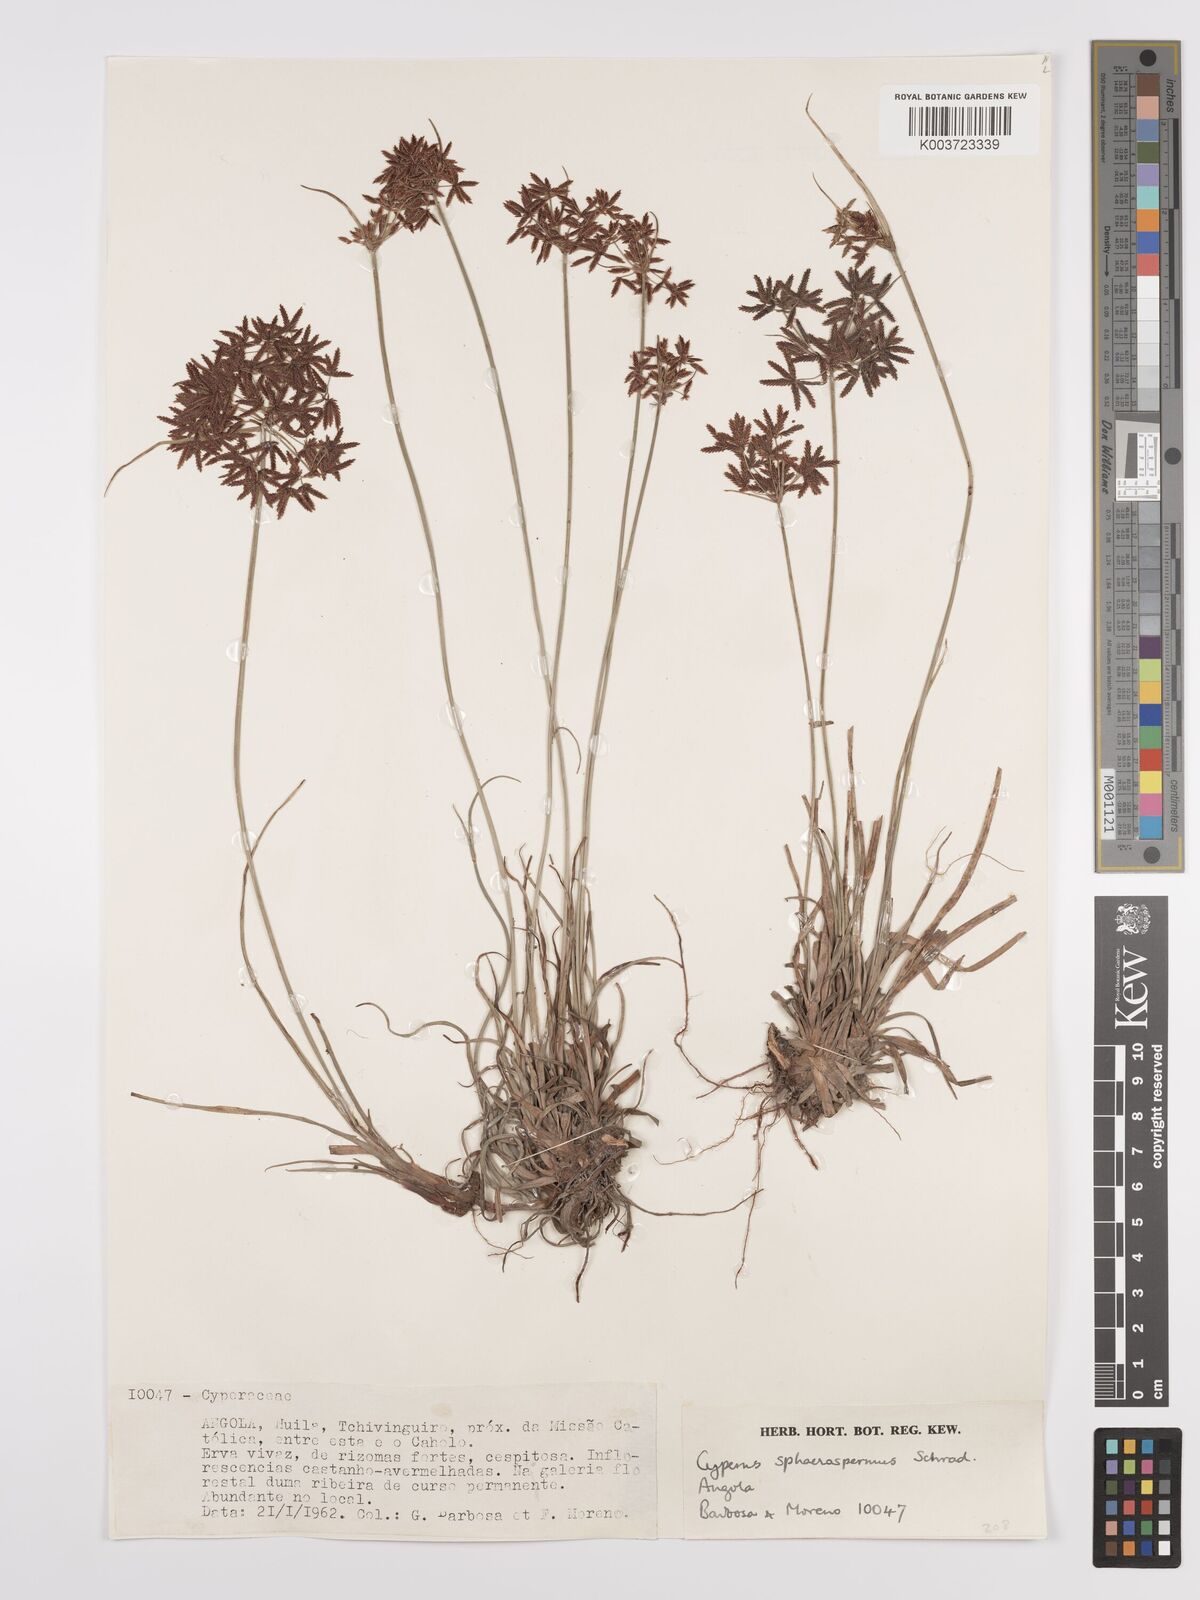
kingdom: Plantae
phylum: Tracheophyta
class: Liliopsida
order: Poales
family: Cyperaceae
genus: Cyperus
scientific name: Cyperus denudatus
